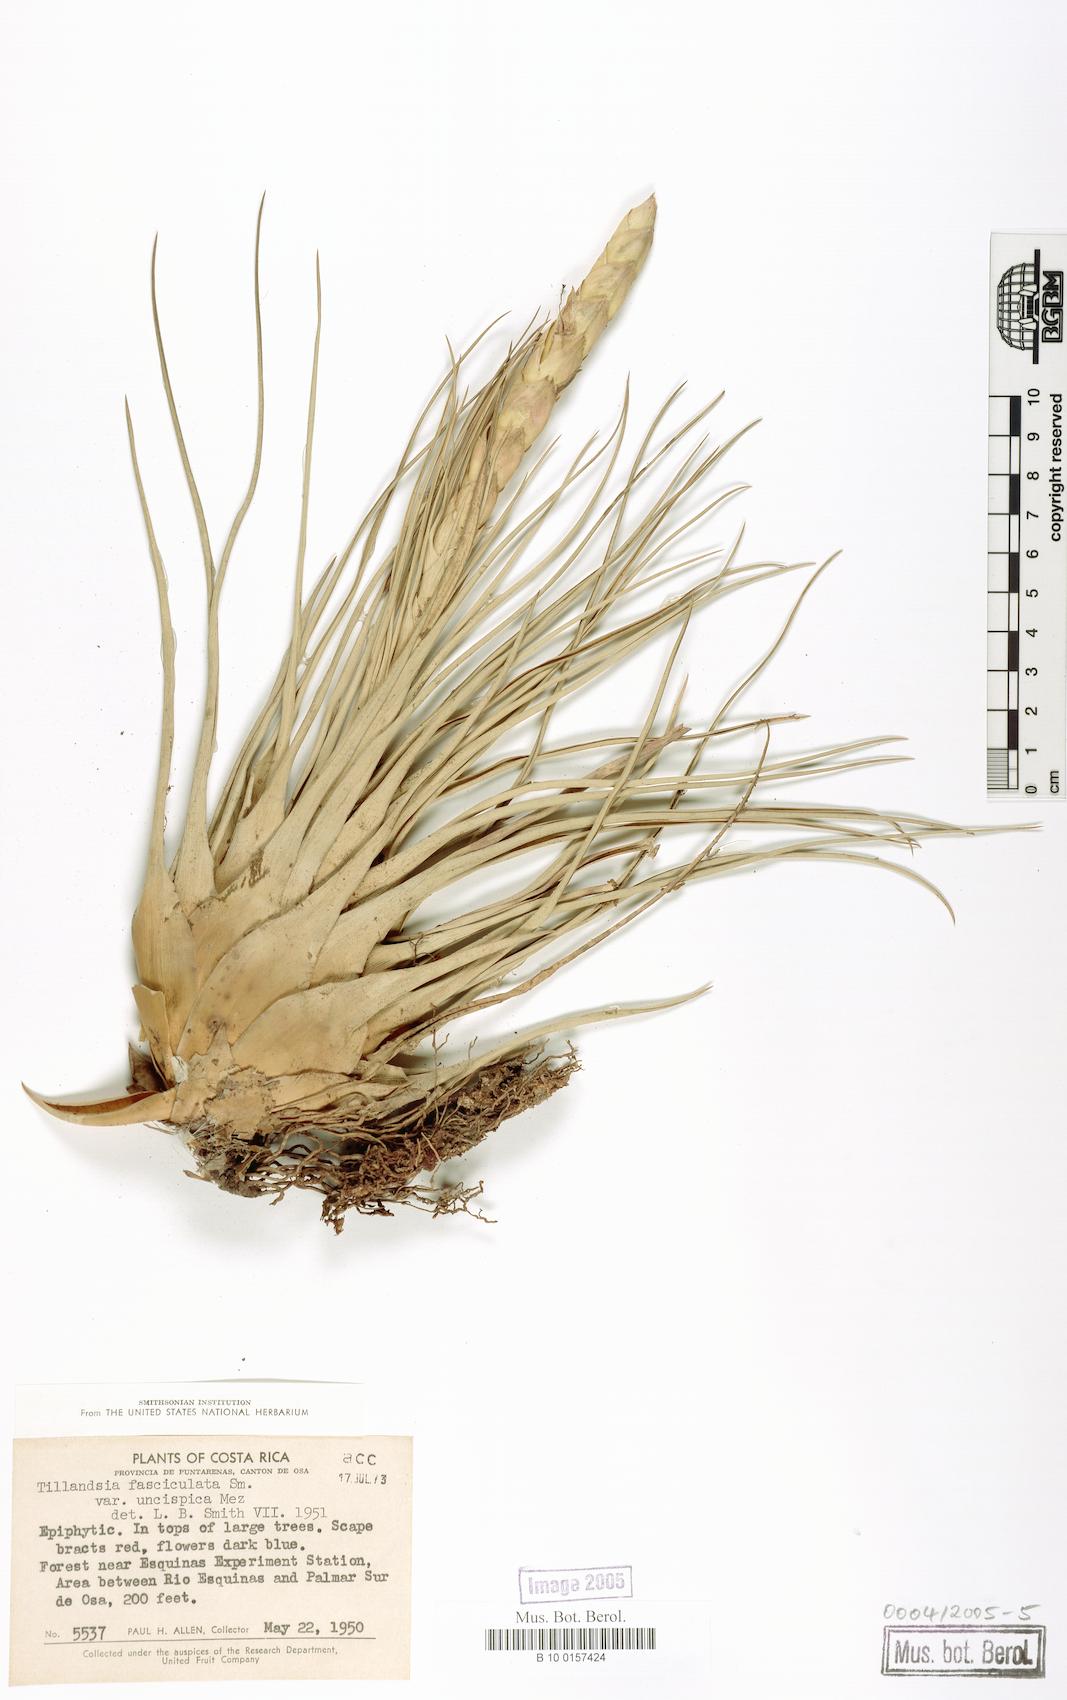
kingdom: Plantae
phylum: Tracheophyta
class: Liliopsida
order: Poales
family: Bromeliaceae
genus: Tillandsia
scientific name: Tillandsia fasciculata
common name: Giant airplant
